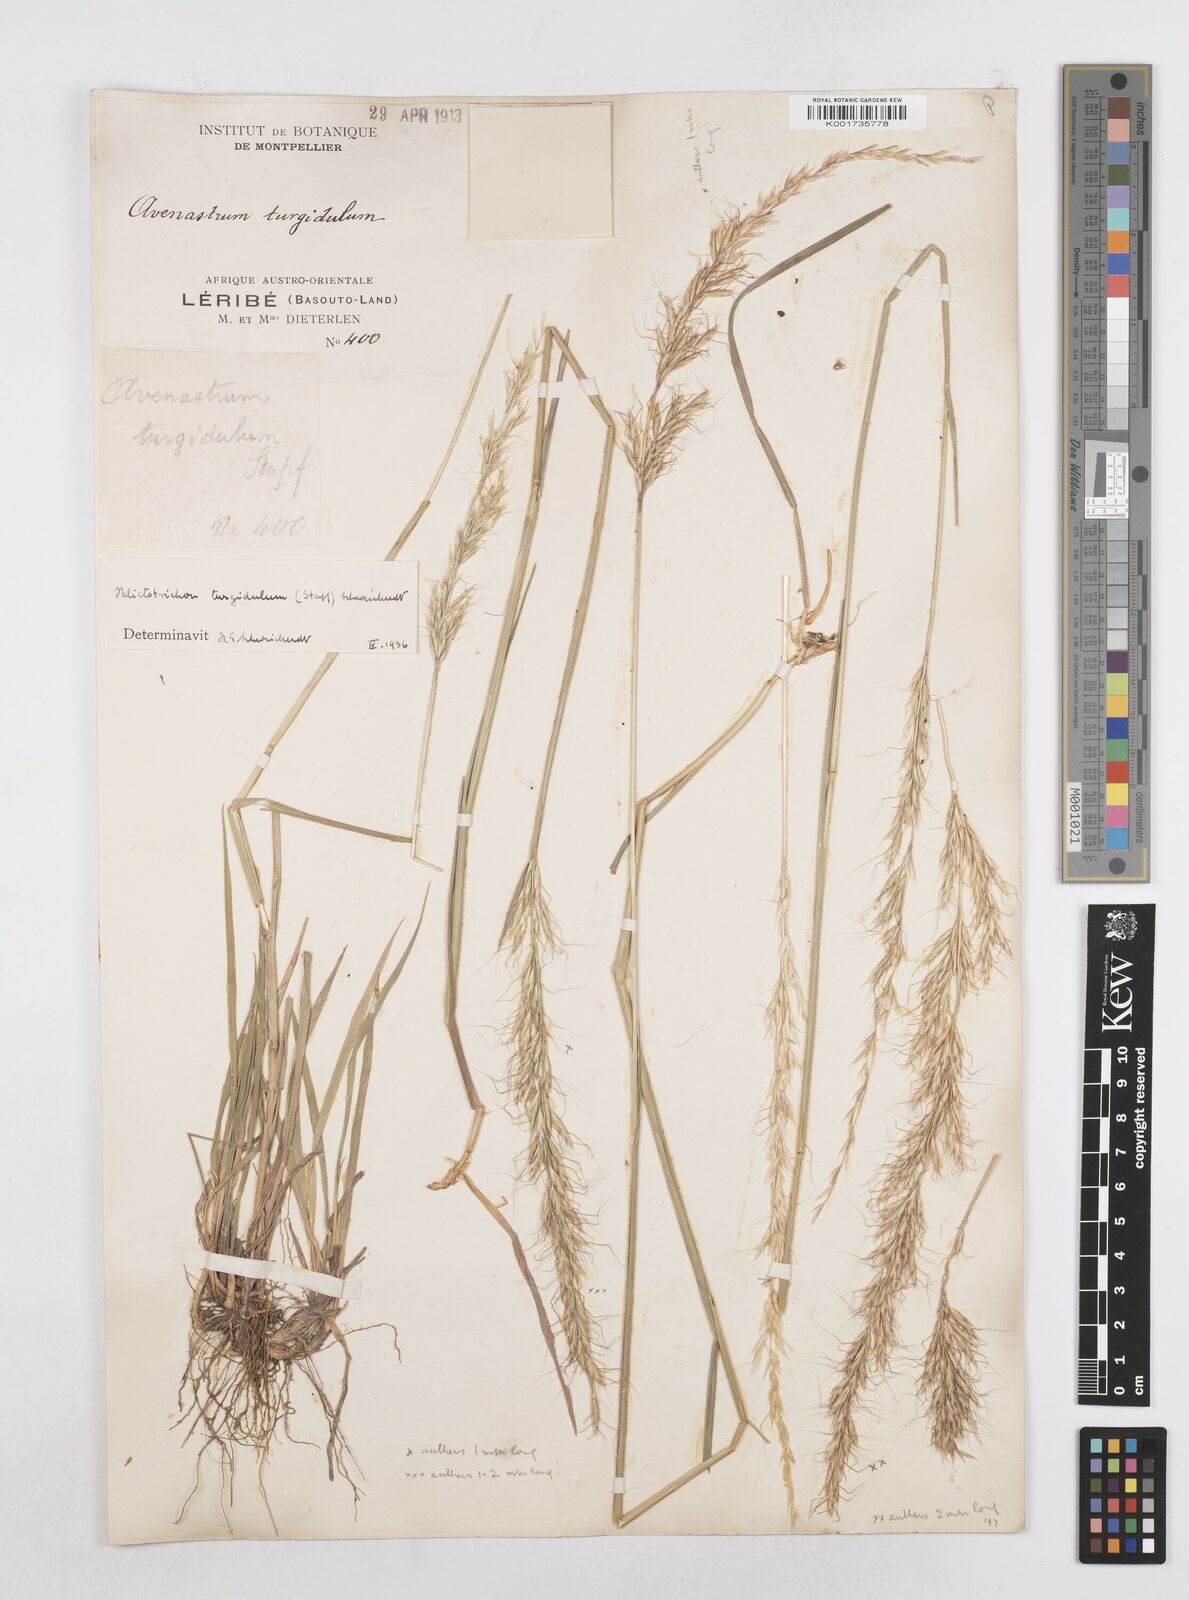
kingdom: Plantae
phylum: Tracheophyta
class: Liliopsida
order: Poales
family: Poaceae
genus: Trisetopsis
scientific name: Trisetopsis imberbis
